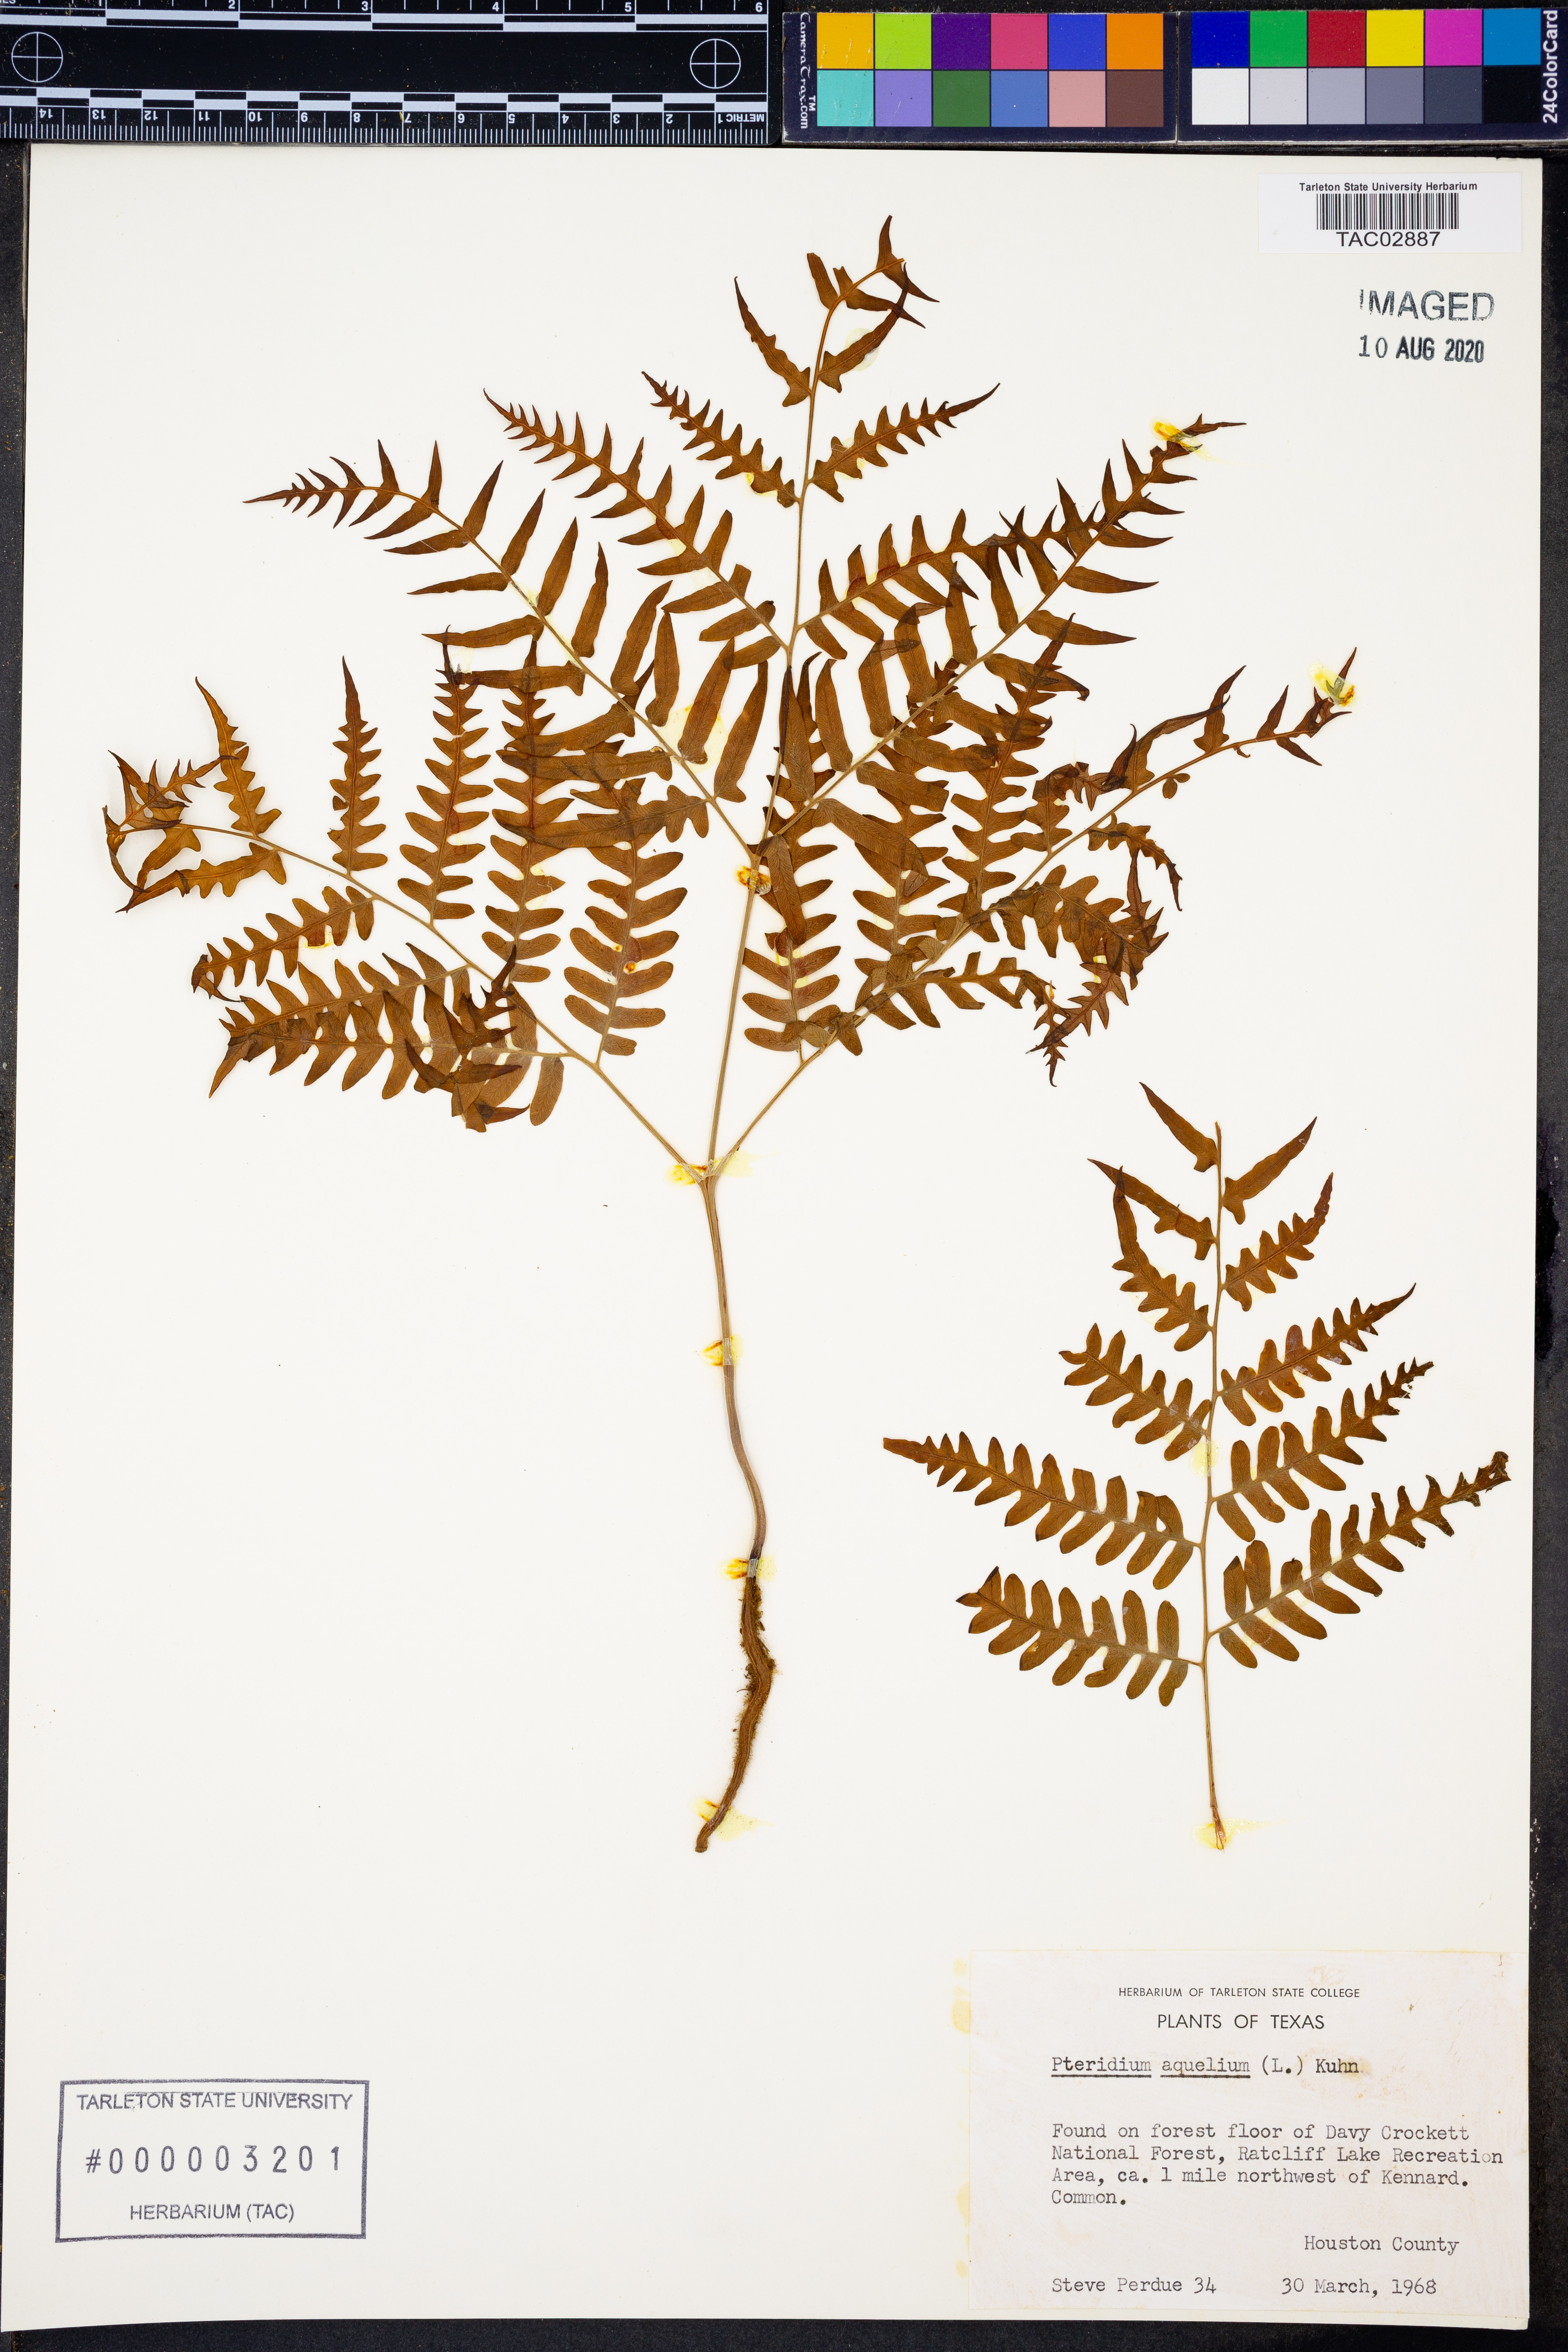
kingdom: Plantae
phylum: Tracheophyta
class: Polypodiopsida
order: Polypodiales
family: Dennstaedtiaceae
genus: Pteridium
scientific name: Pteridium aquilinum
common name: Bracken
